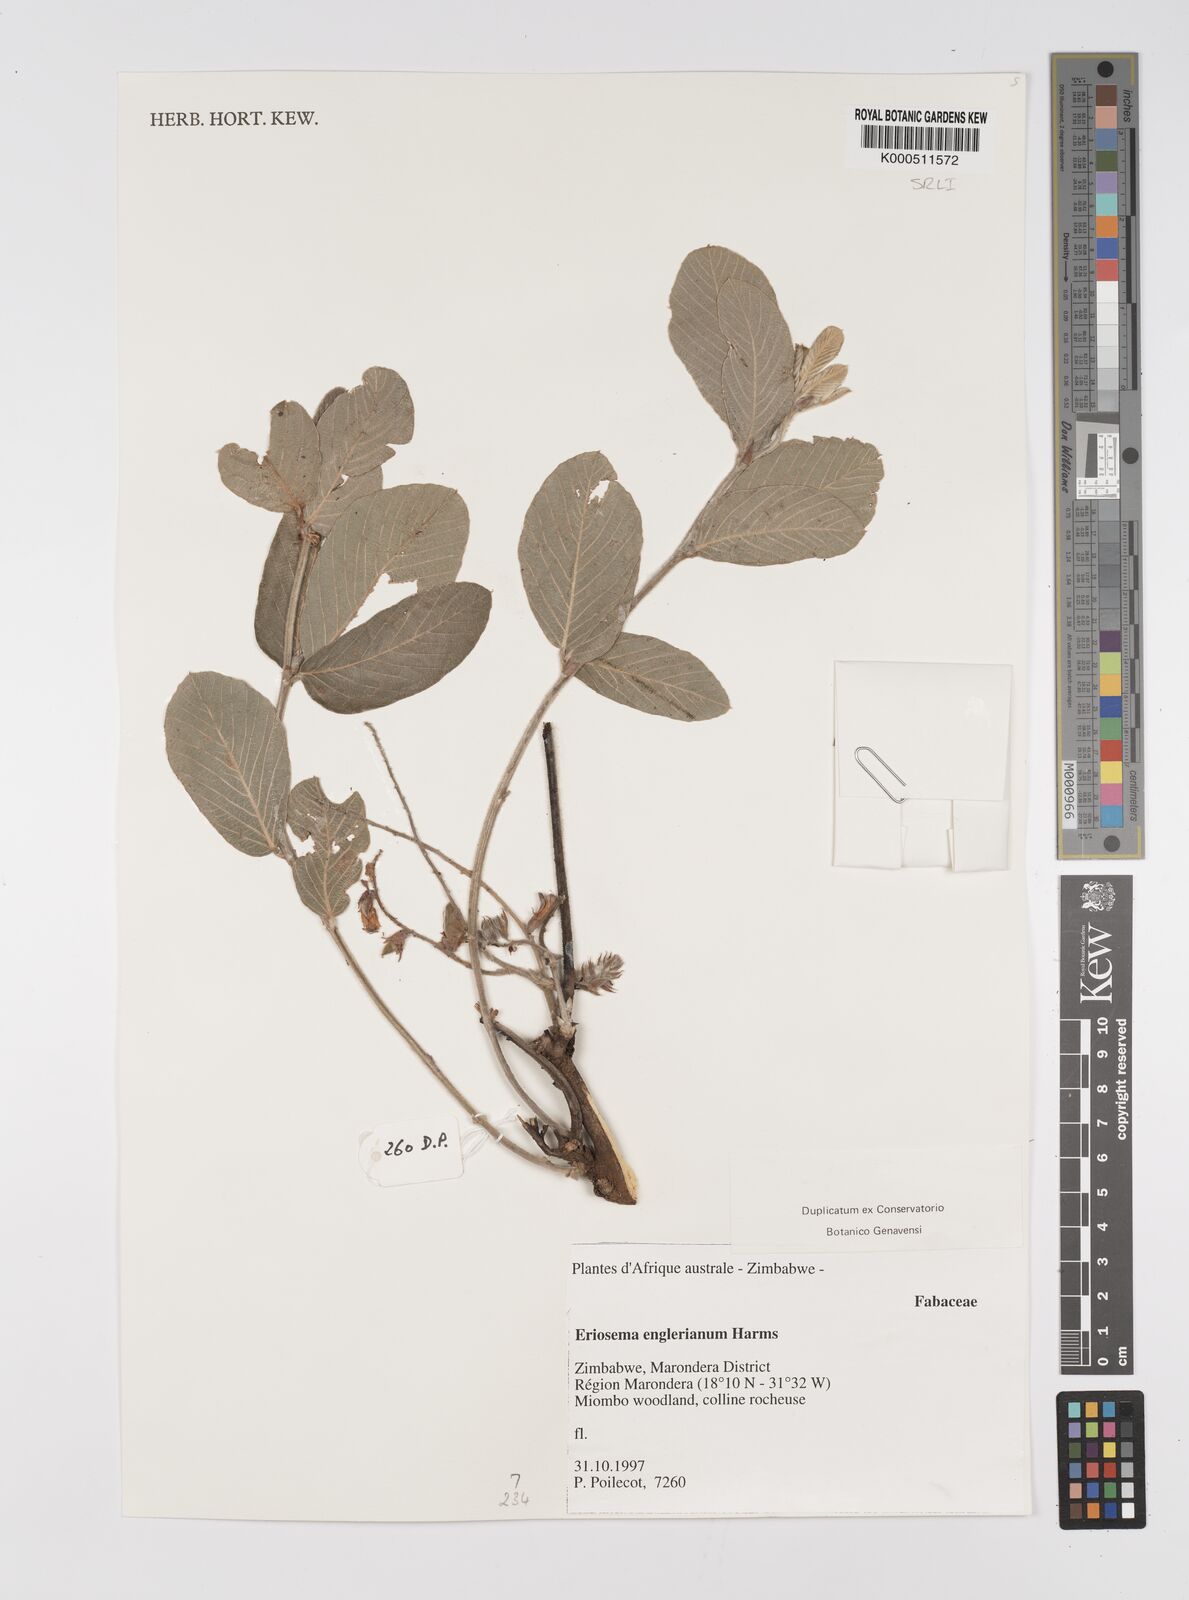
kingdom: Plantae
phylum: Tracheophyta
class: Magnoliopsida
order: Fabales
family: Fabaceae
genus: Eriosema
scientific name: Eriosema englerianum
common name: Blue bush
